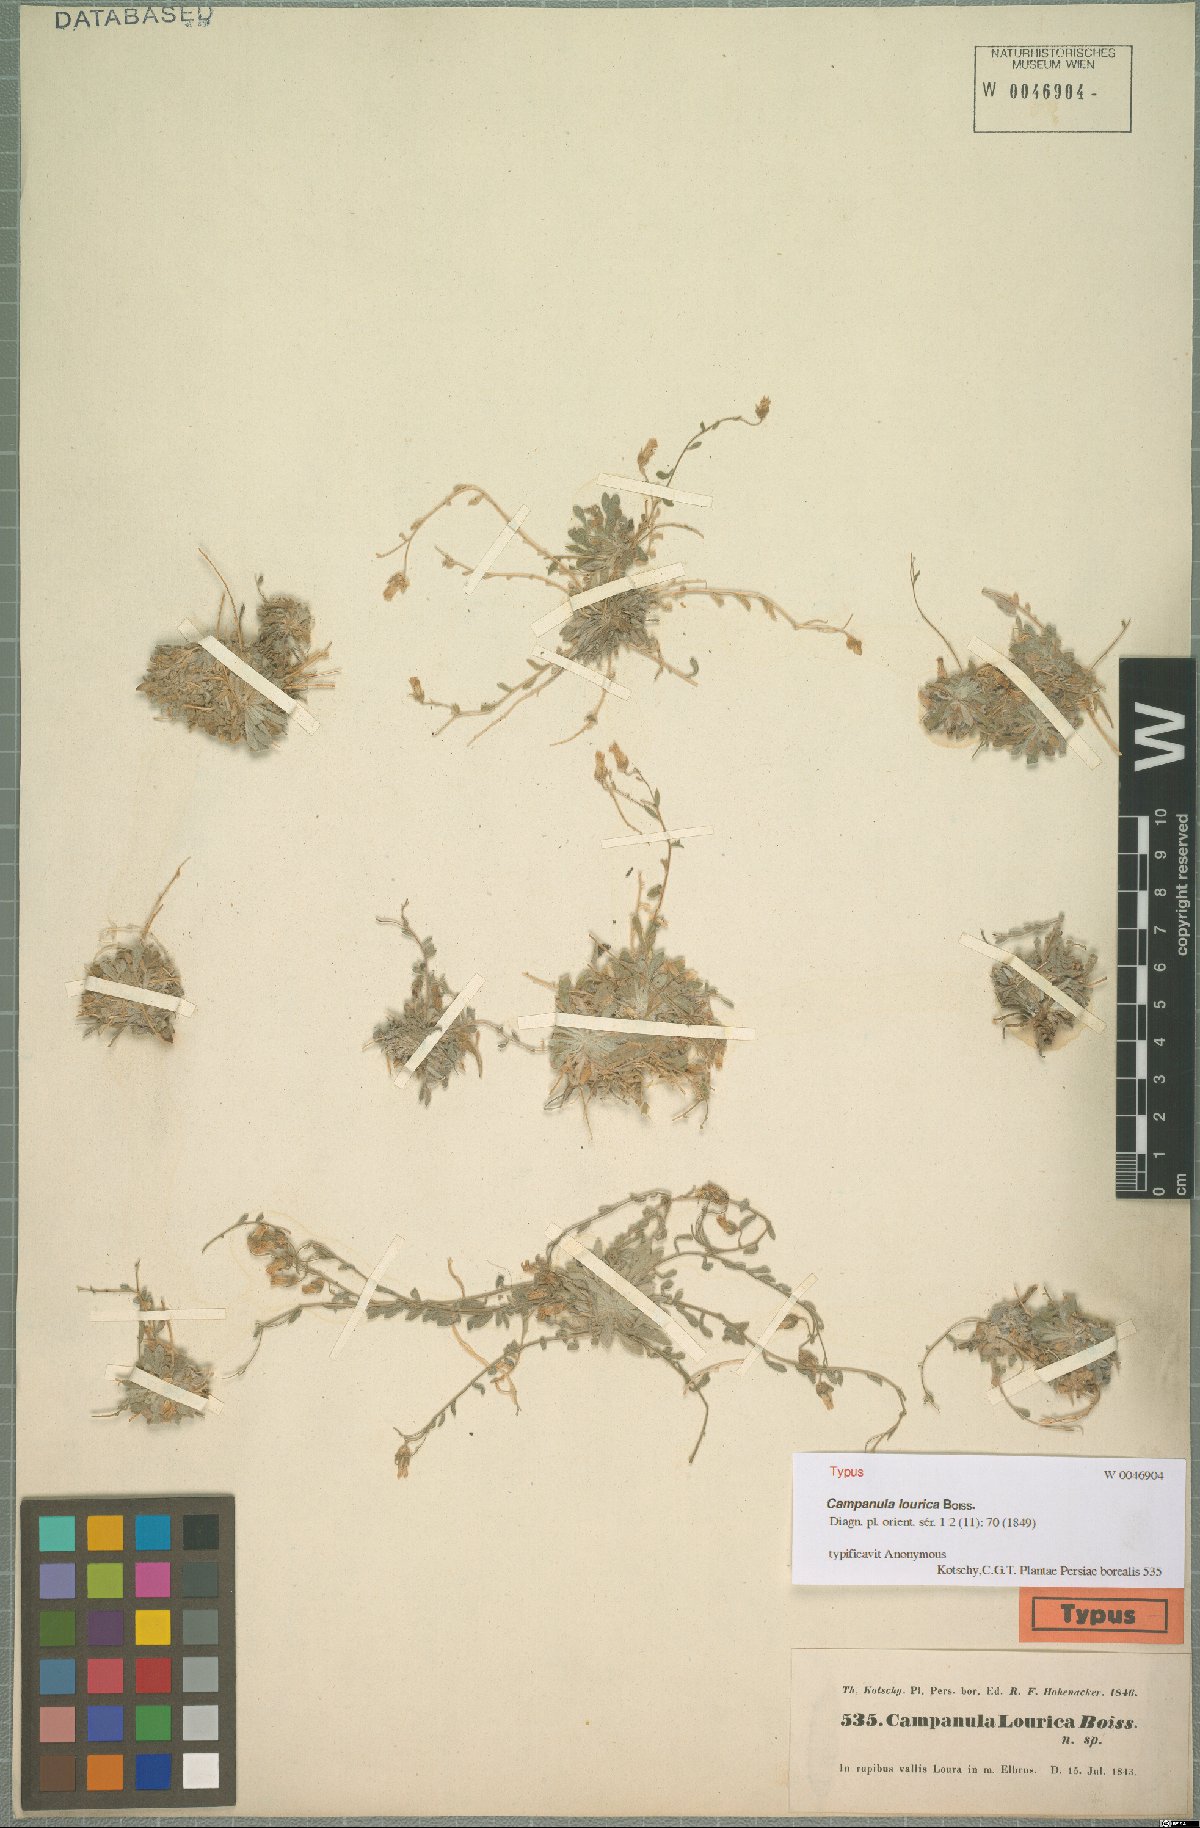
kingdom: Plantae
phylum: Tracheophyta
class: Magnoliopsida
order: Asterales
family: Campanulaceae
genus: Campanula
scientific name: Campanula lourica
